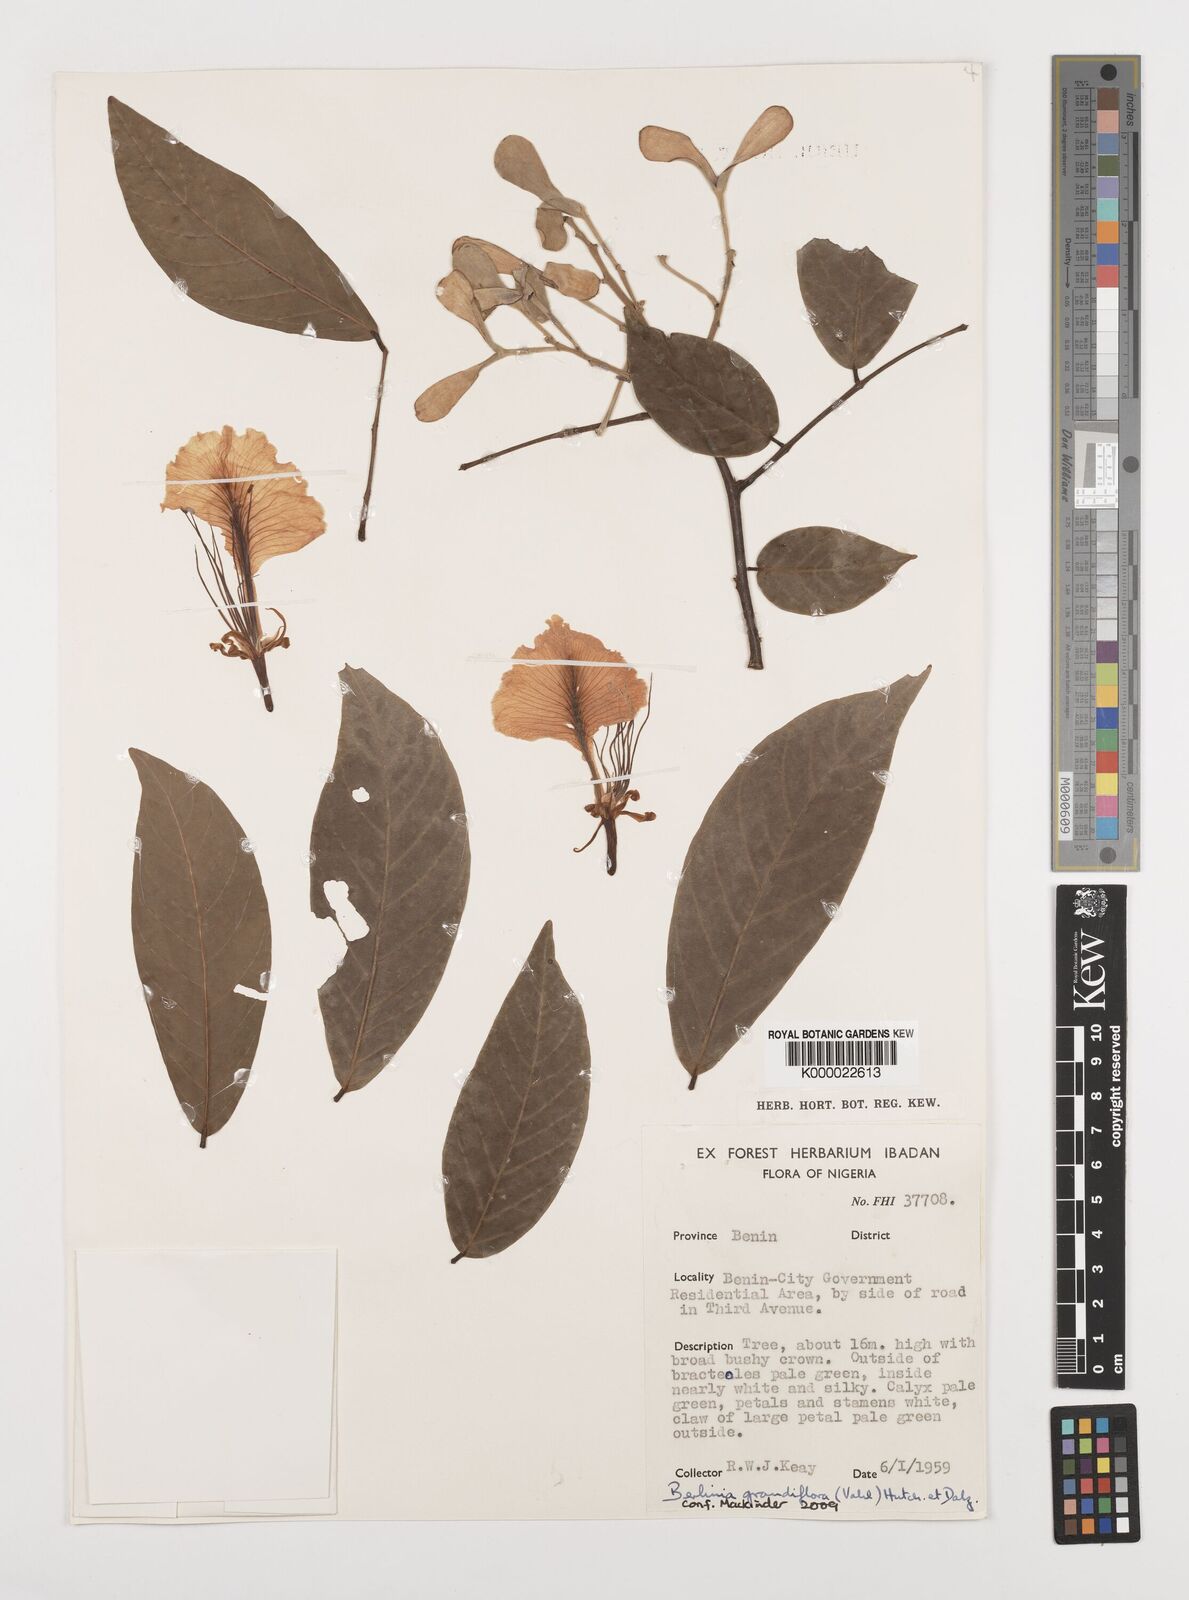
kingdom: Plantae
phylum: Tracheophyta
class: Magnoliopsida
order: Fabales
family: Fabaceae
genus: Berlinia
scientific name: Berlinia grandiflora
